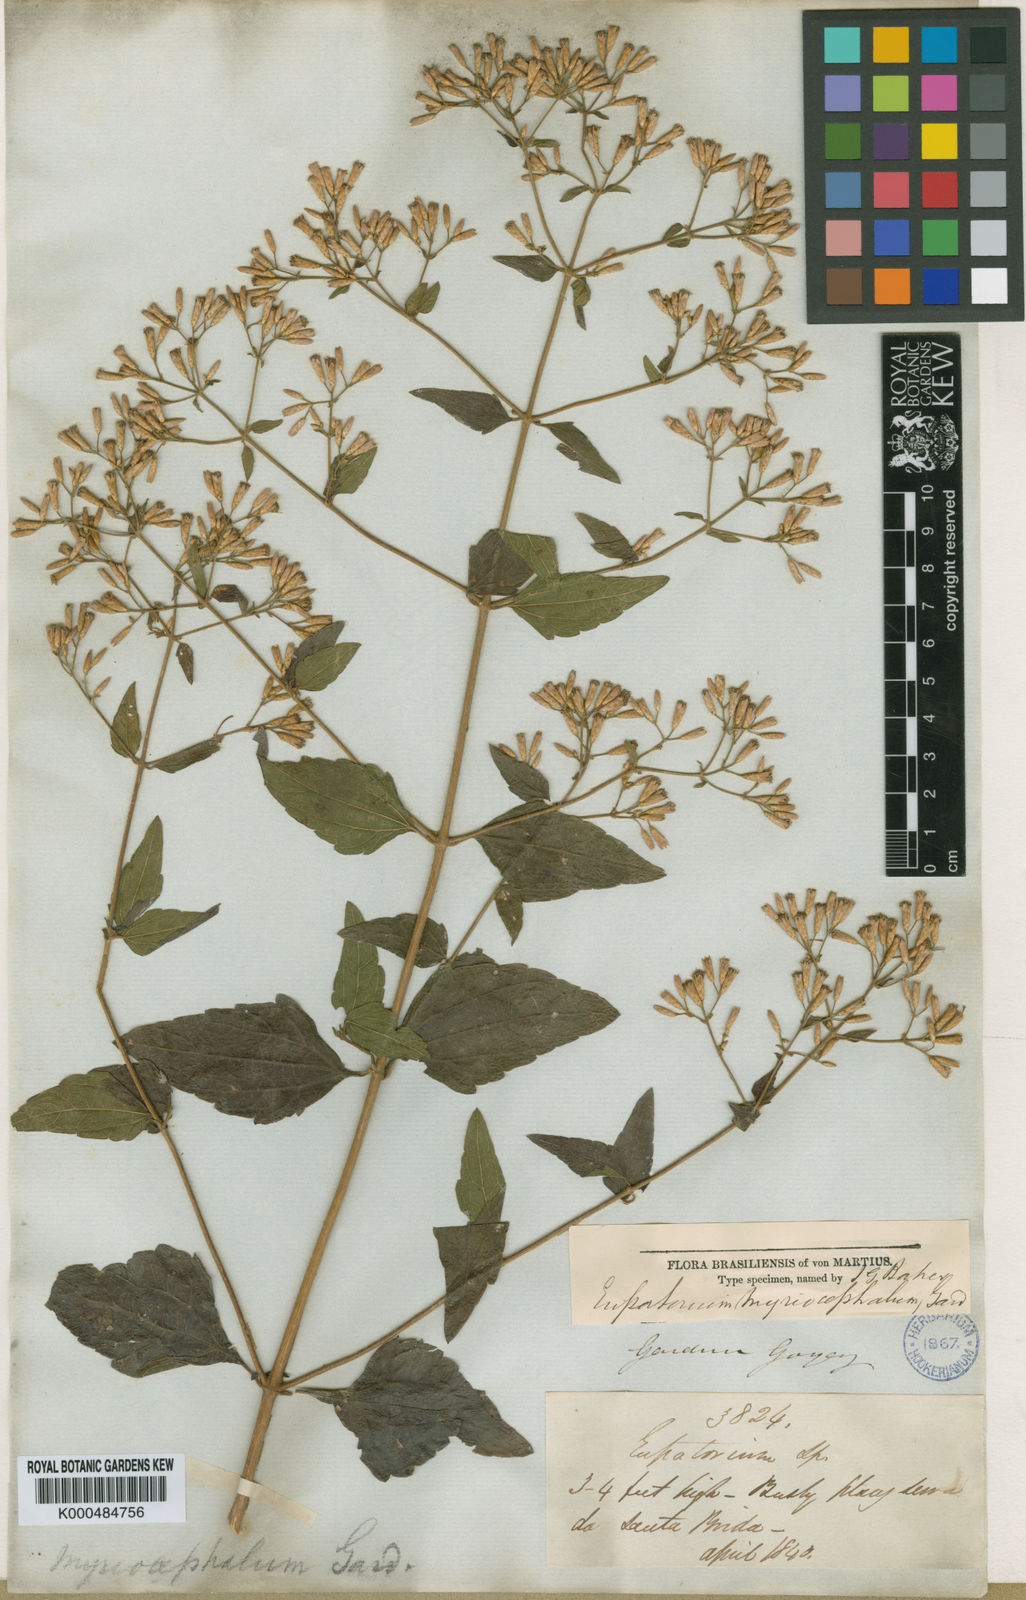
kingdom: Plantae
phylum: Tracheophyta
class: Magnoliopsida
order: Asterales
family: Asteraceae
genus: Chromolaena
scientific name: Chromolaena myriocephala
